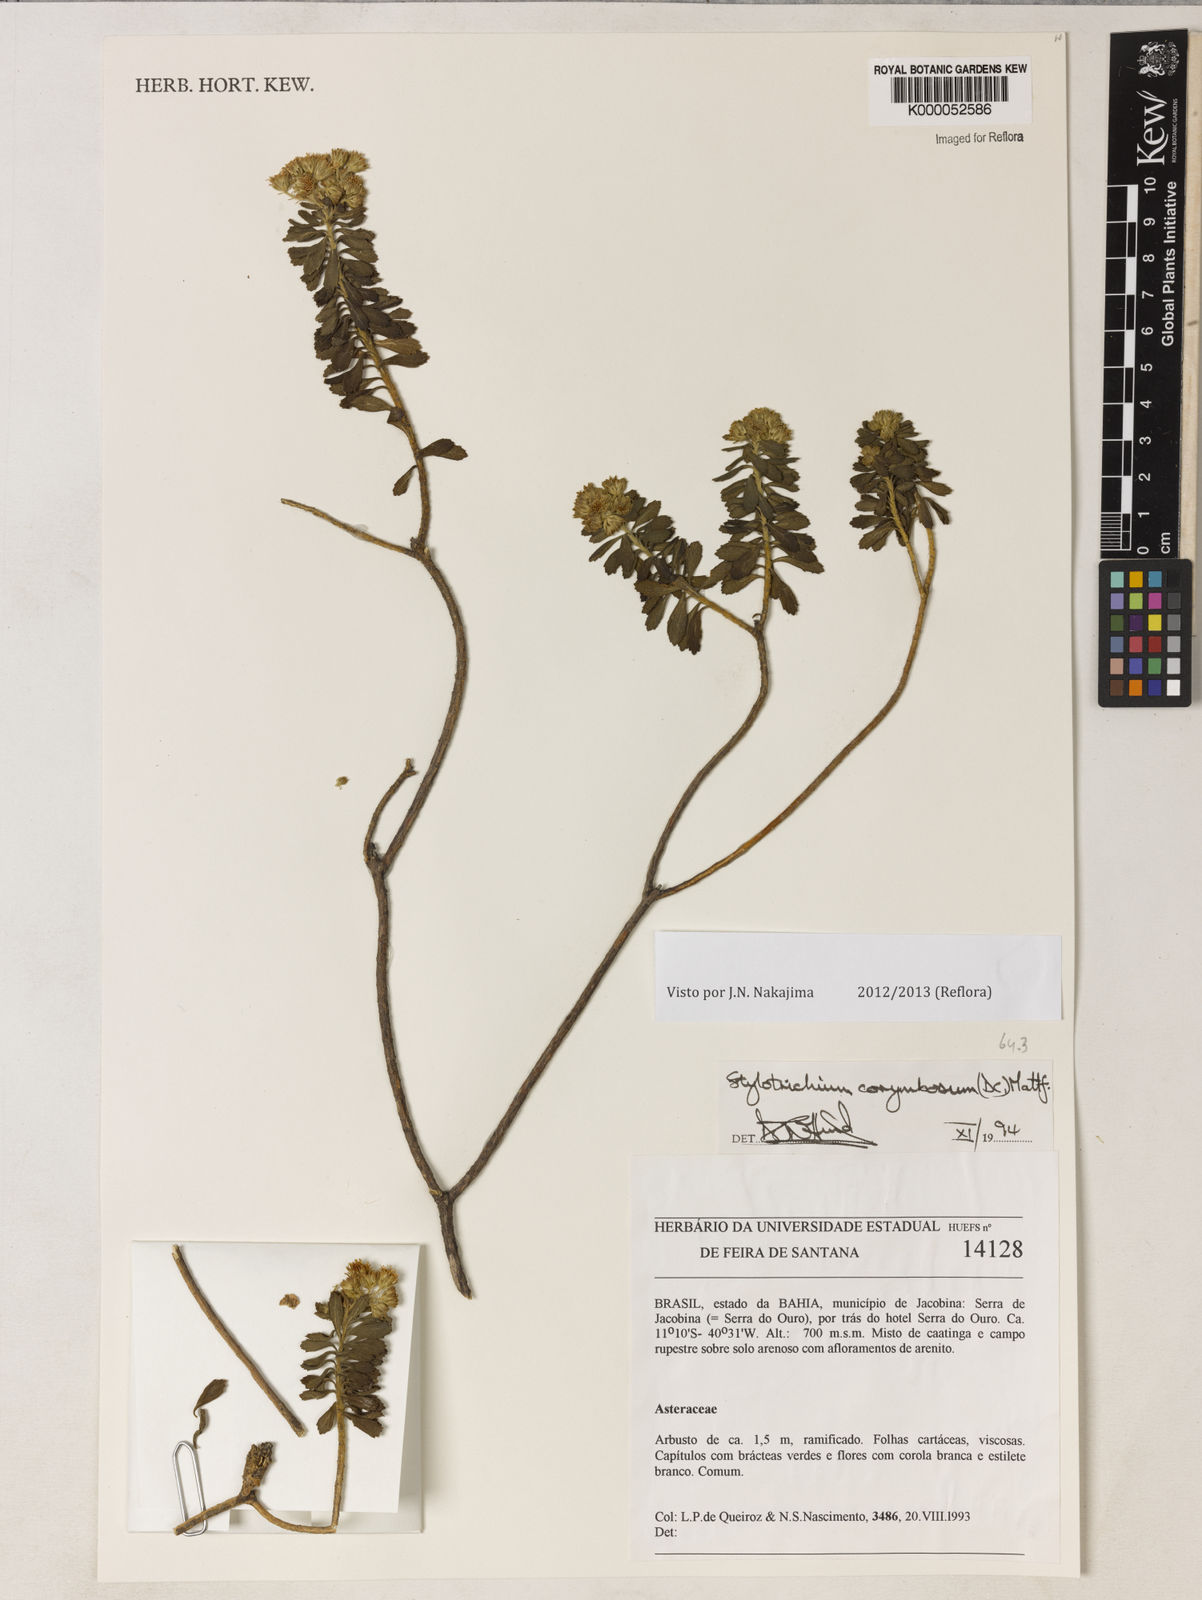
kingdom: Plantae
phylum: Tracheophyta
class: Magnoliopsida
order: Asterales
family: Asteraceae
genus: Stylotrichium
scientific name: Stylotrichium corymbosum
